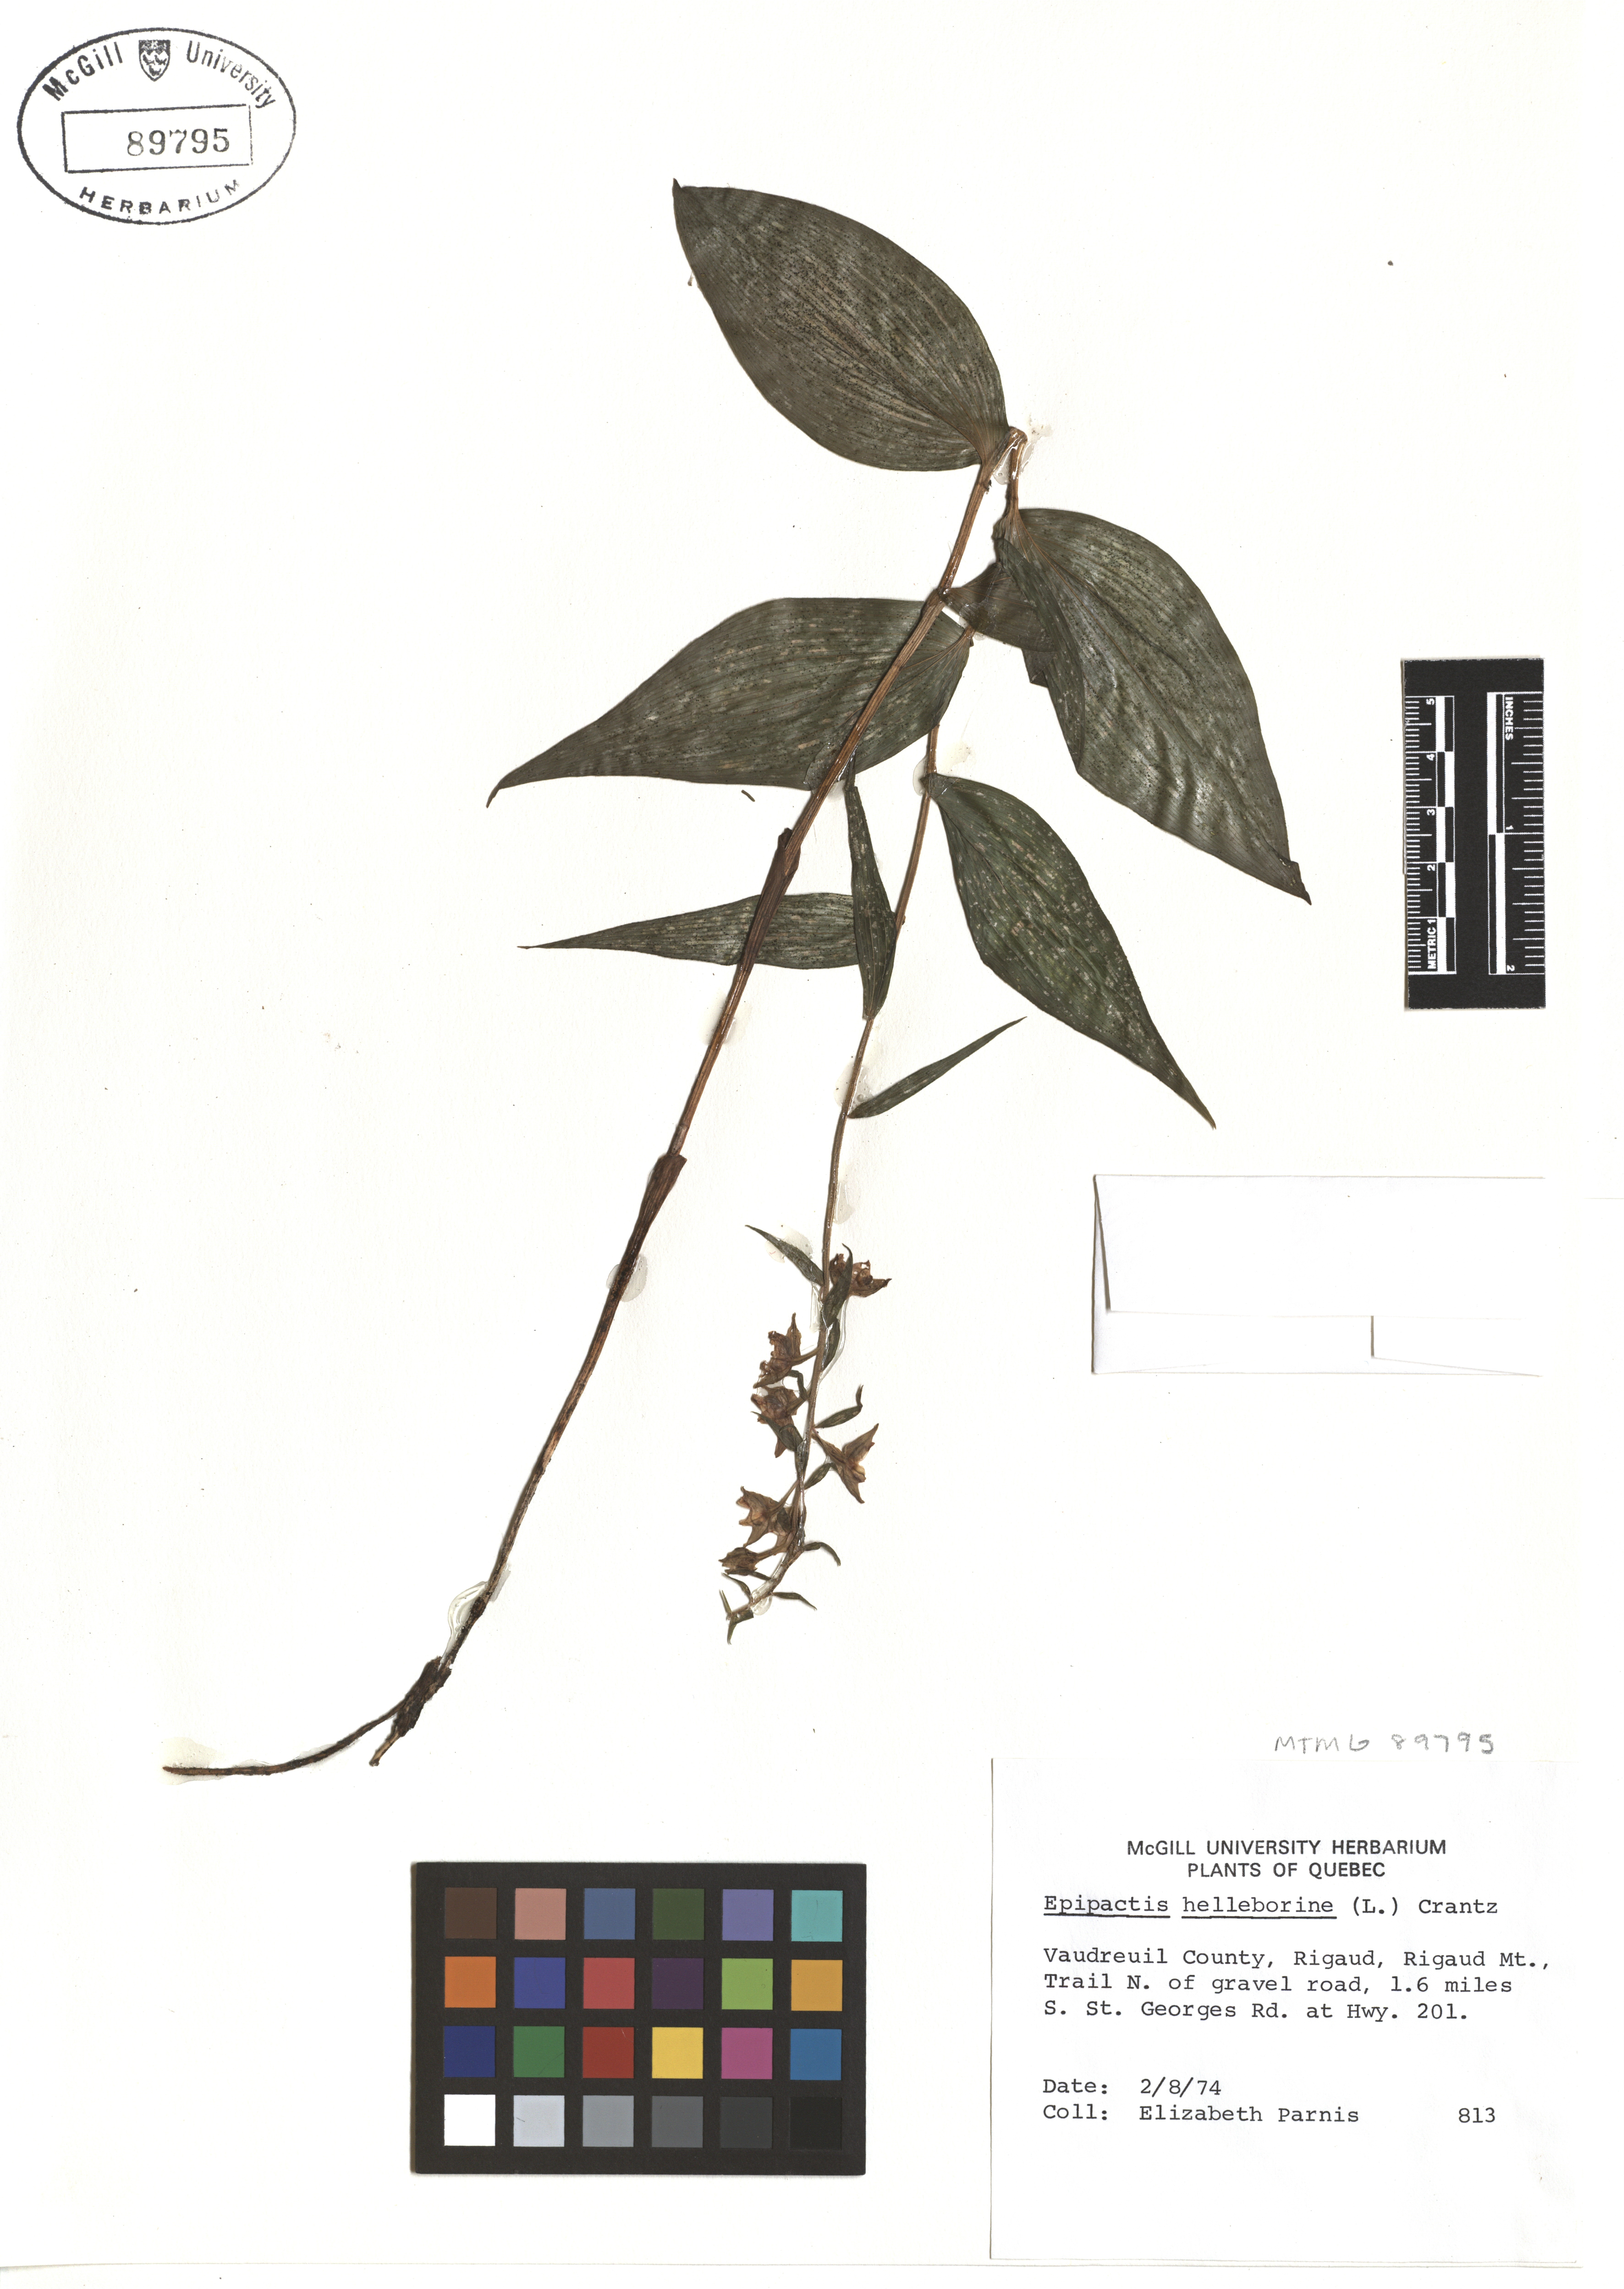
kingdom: Plantae
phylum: Tracheophyta
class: Liliopsida
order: Asparagales
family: Orchidaceae
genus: Epipactis
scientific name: Epipactis helleborine
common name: Broad-leaved helleborine
